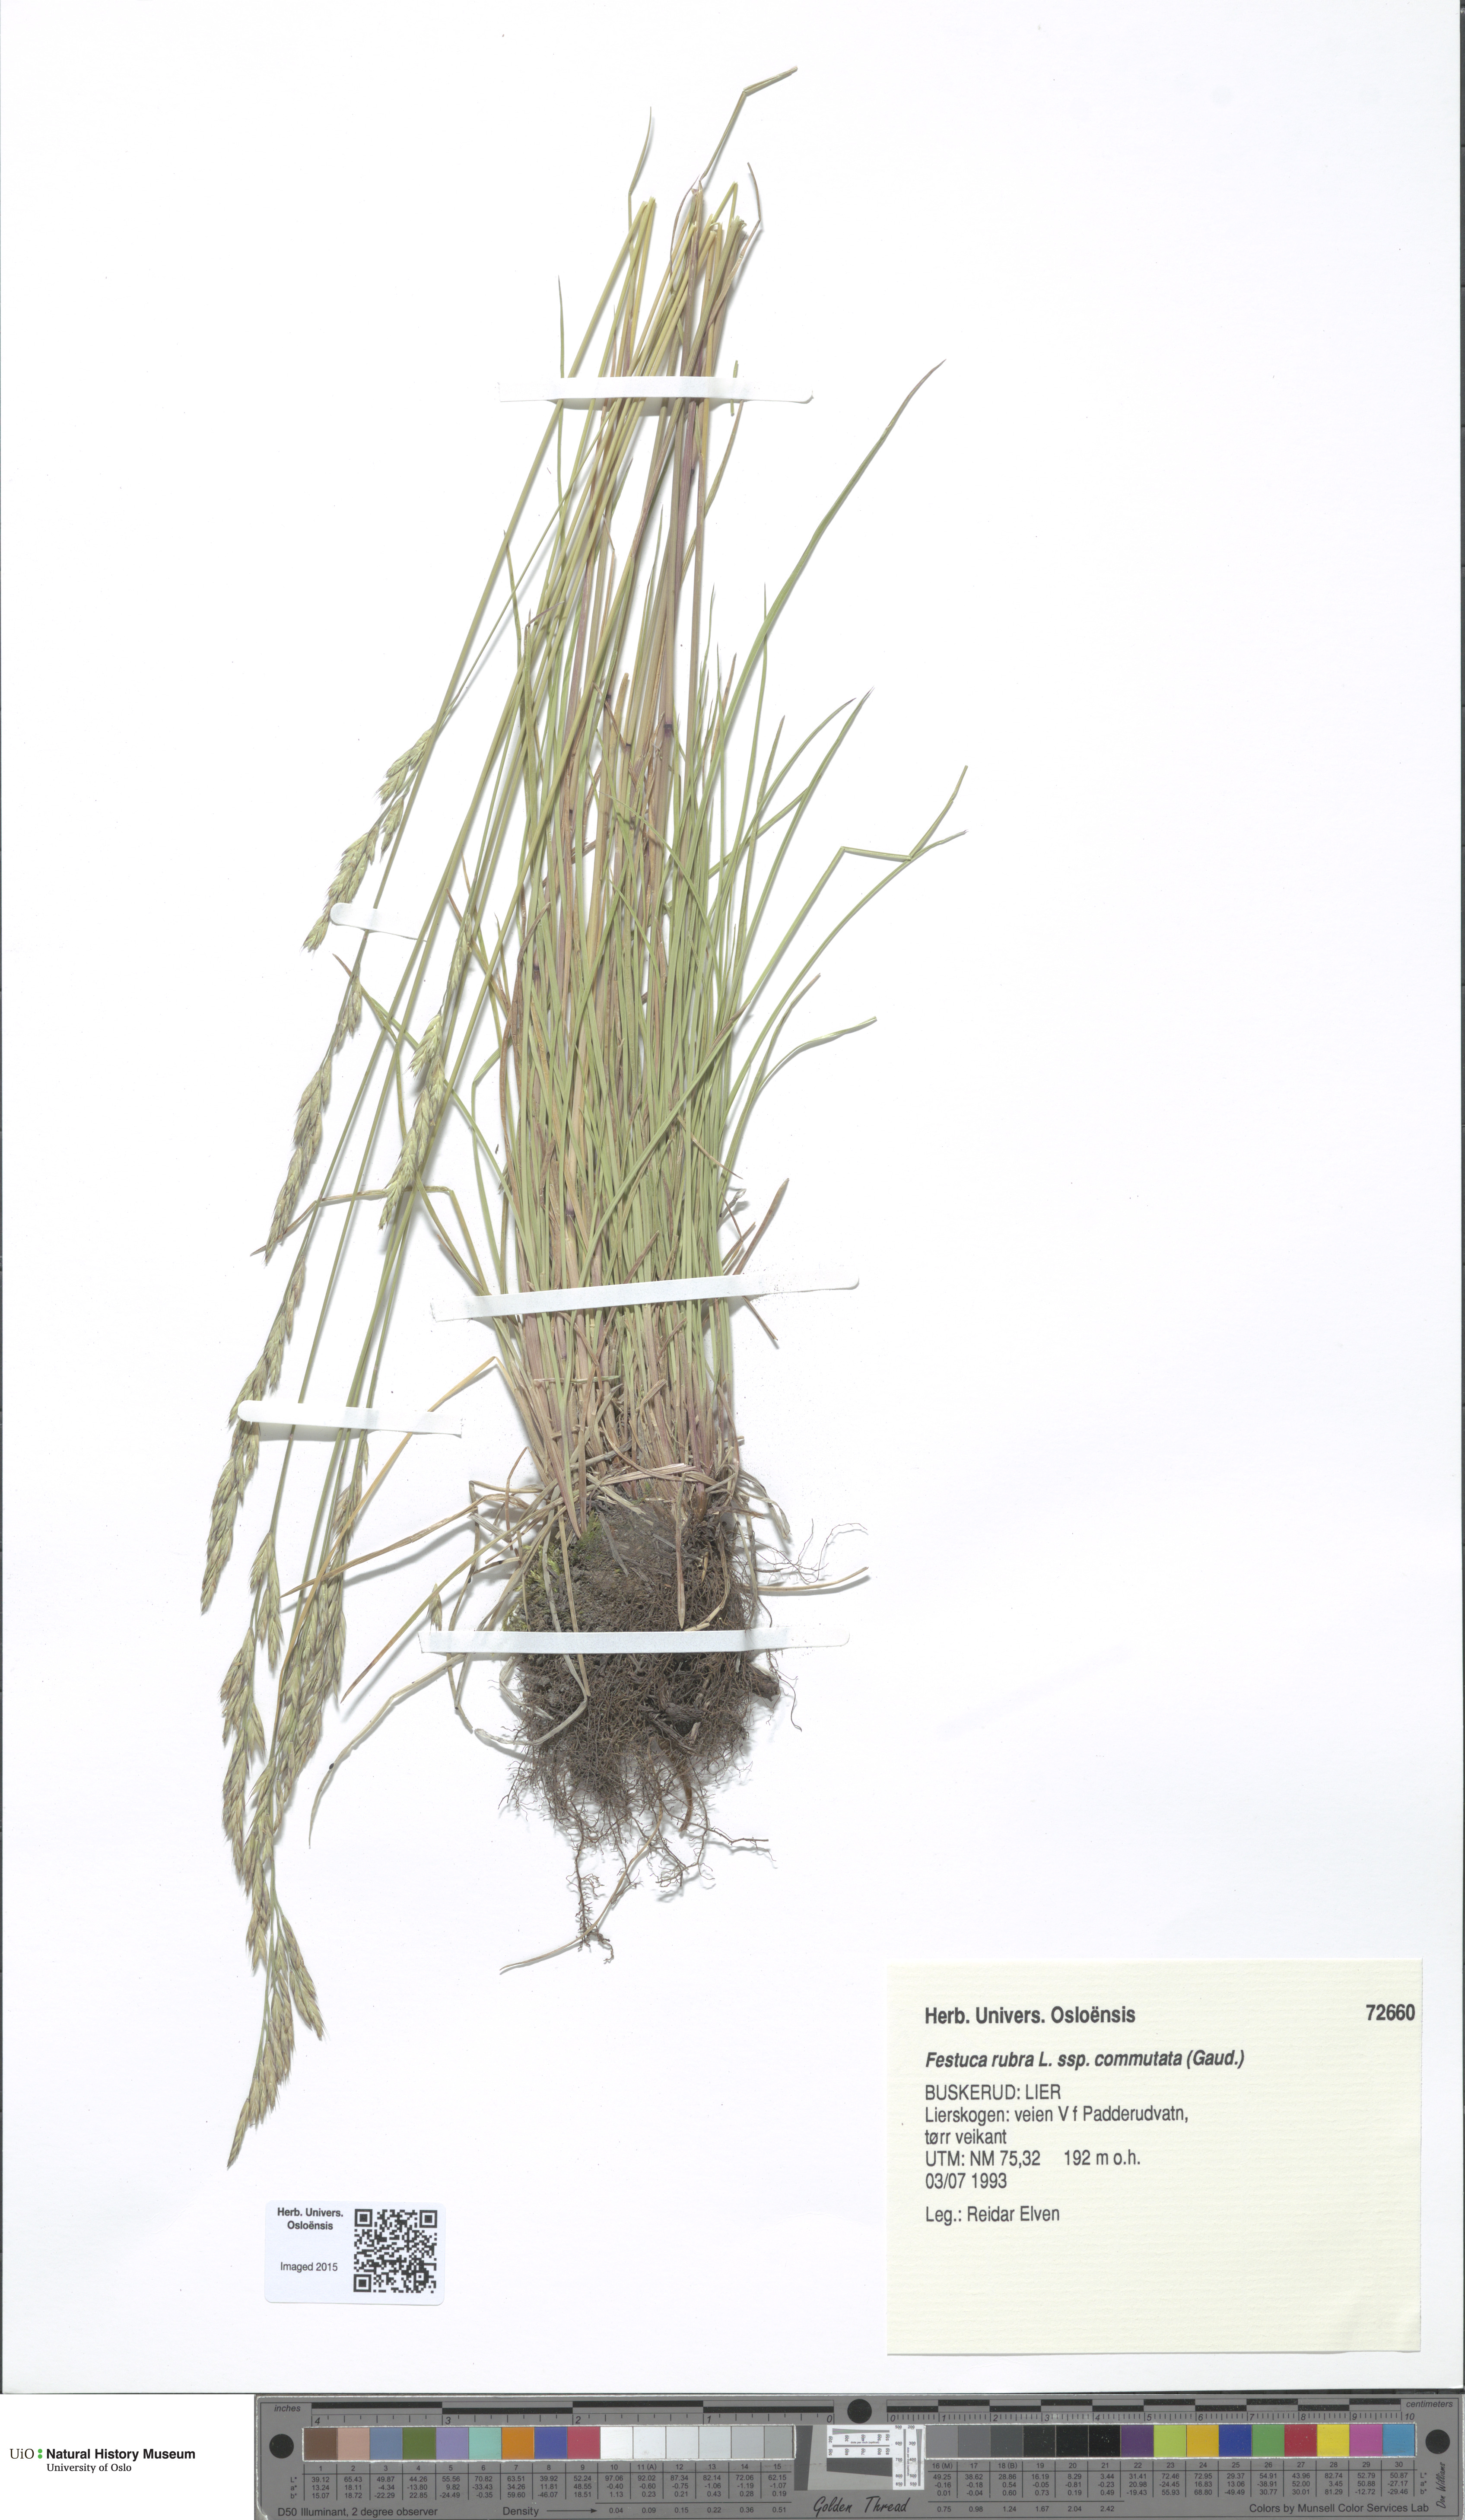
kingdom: Plantae
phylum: Tracheophyta
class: Liliopsida
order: Poales
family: Poaceae
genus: Festuca
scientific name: Festuca rubra
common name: Red fescue
